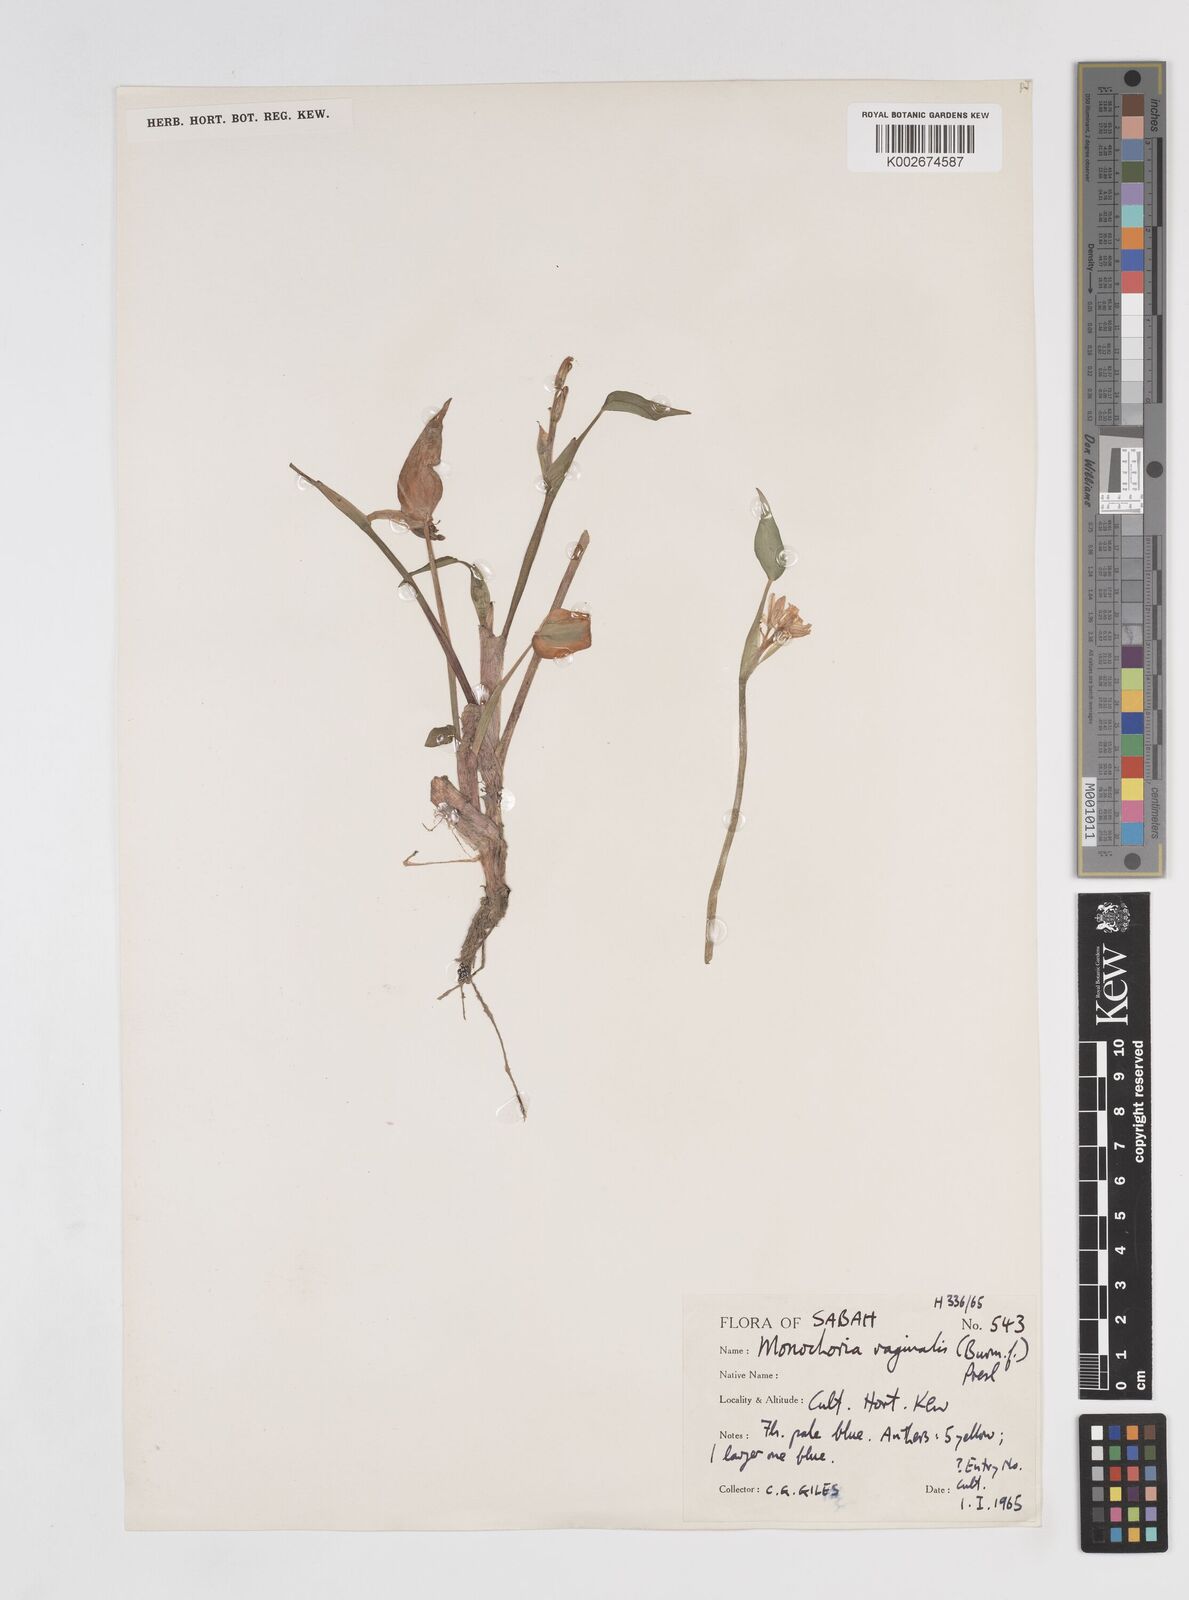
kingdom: Plantae
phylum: Tracheophyta
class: Liliopsida
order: Commelinales
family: Pontederiaceae
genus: Pontederia
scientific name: Pontederia vaginalis
